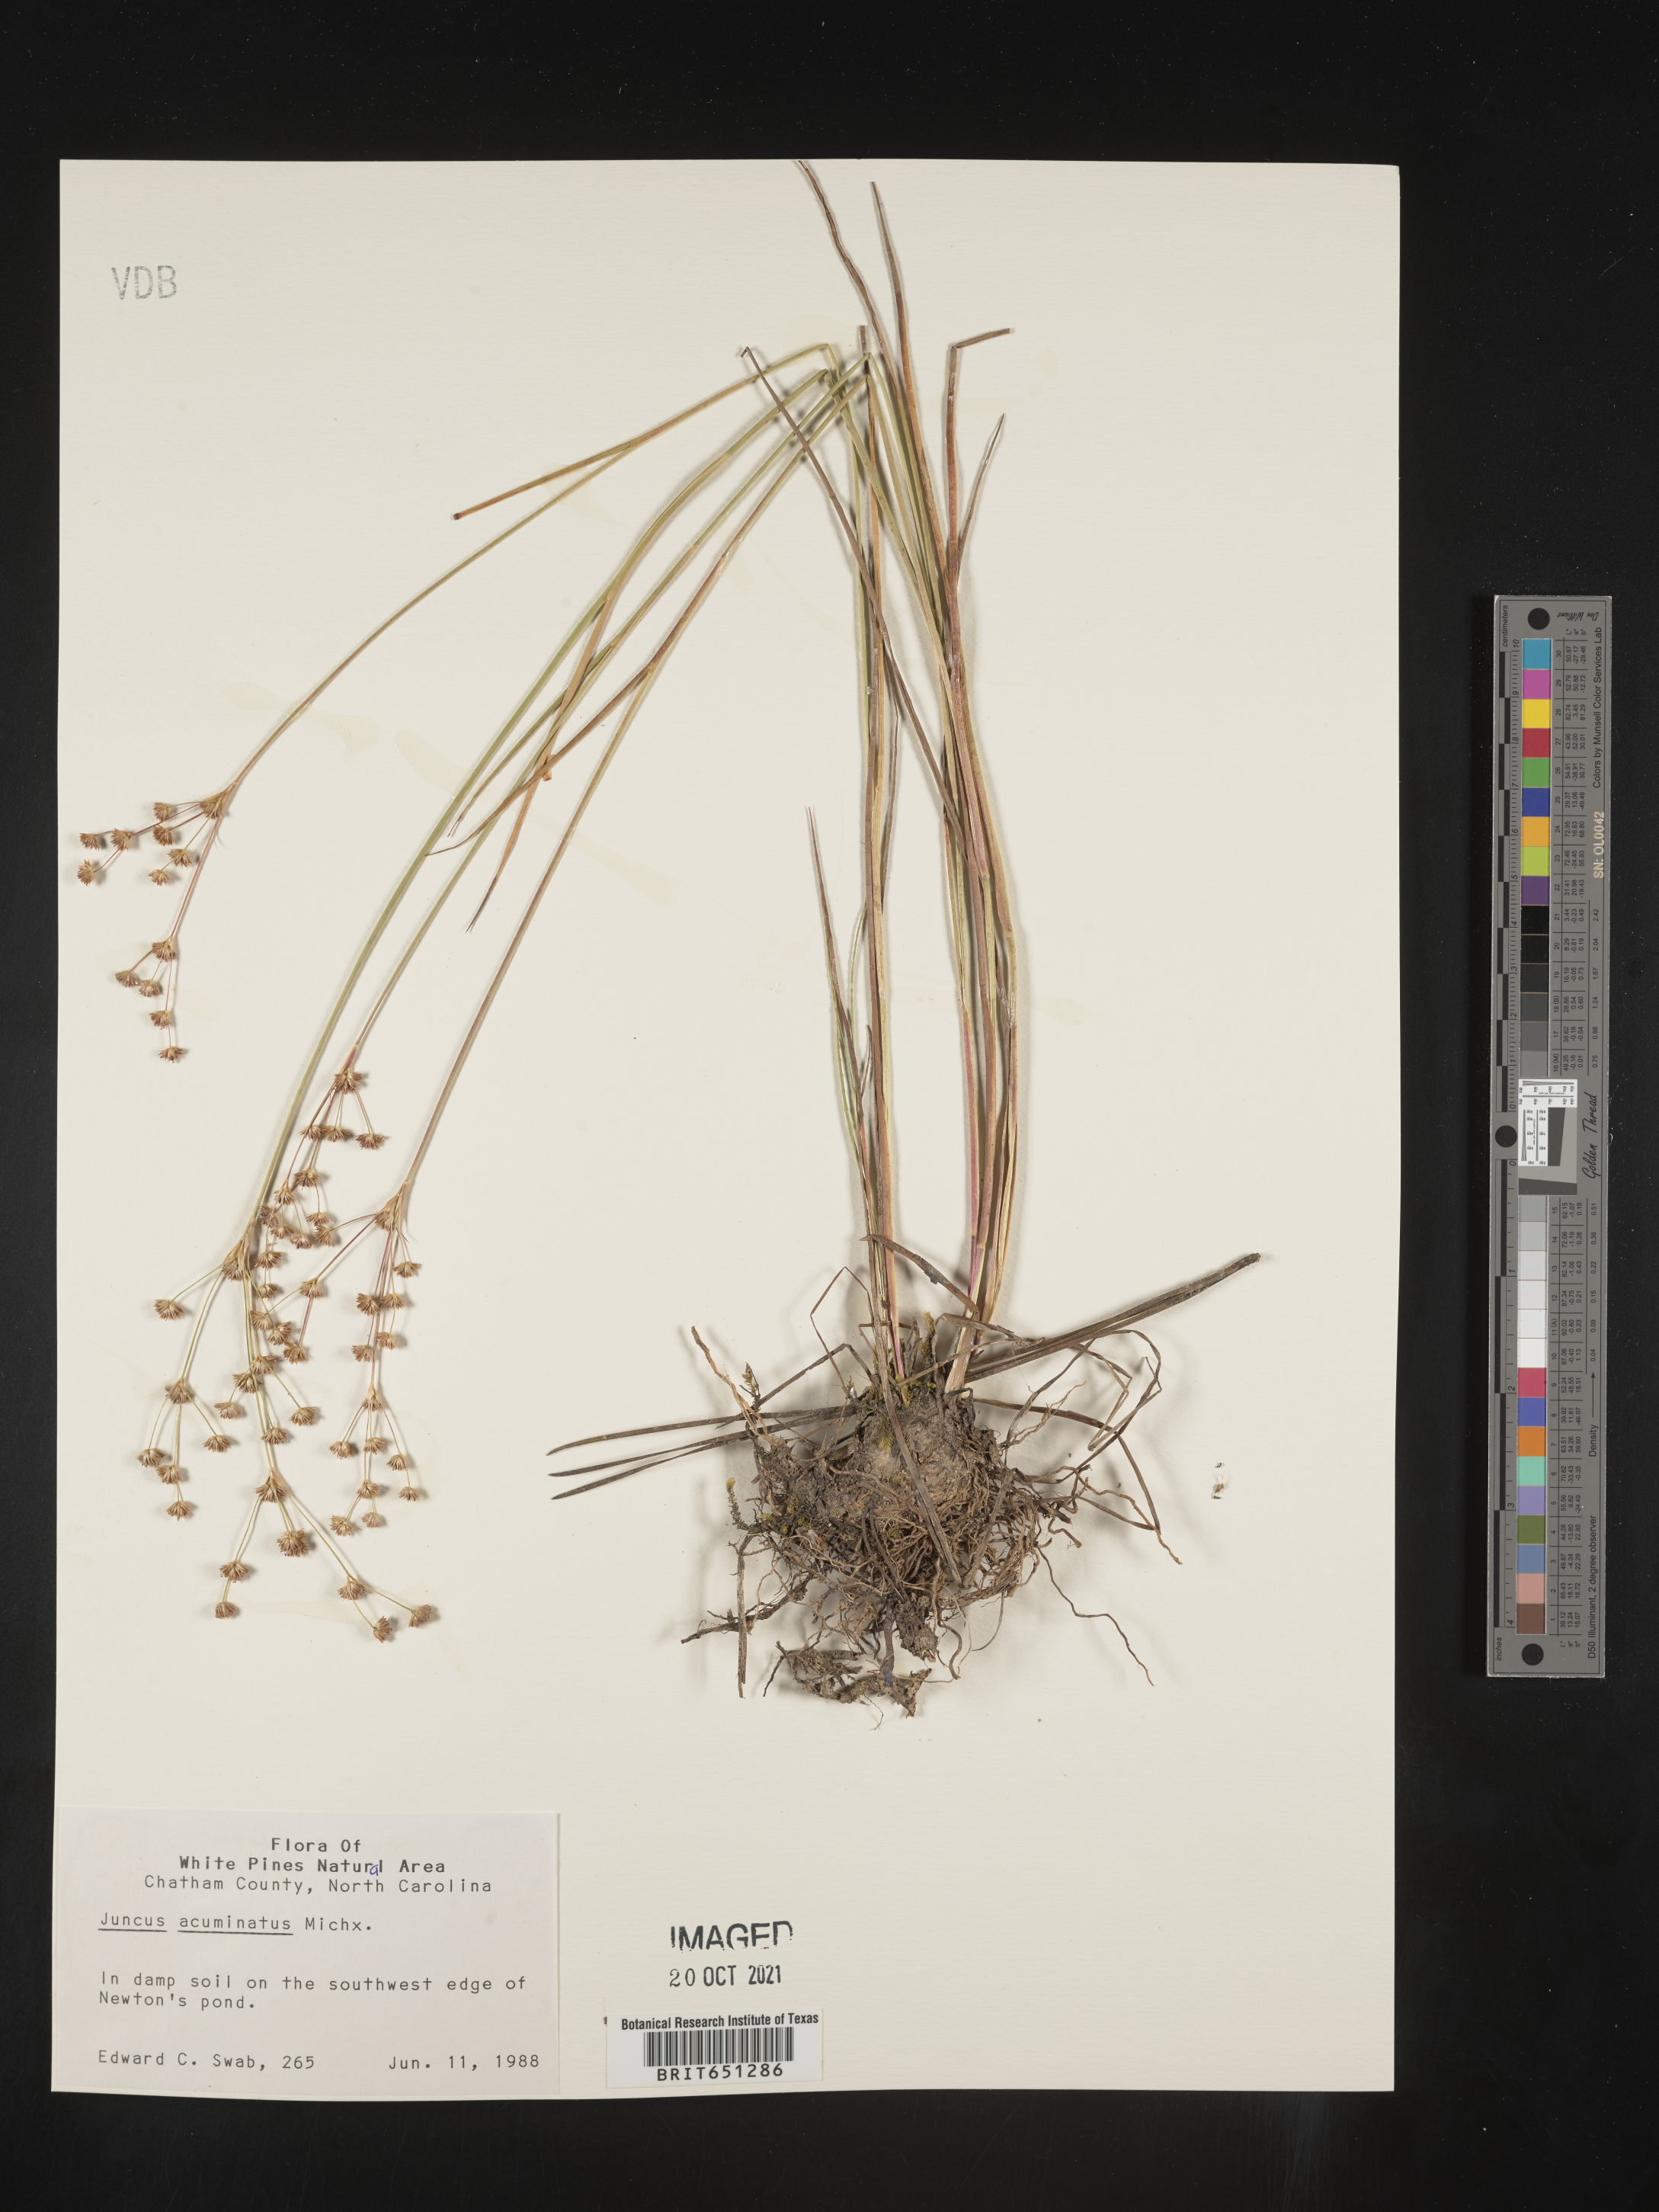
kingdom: Plantae
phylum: Tracheophyta
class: Liliopsida
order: Poales
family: Juncaceae
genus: Juncus
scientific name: Juncus acuminatus
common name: Knotty-leaved rush
